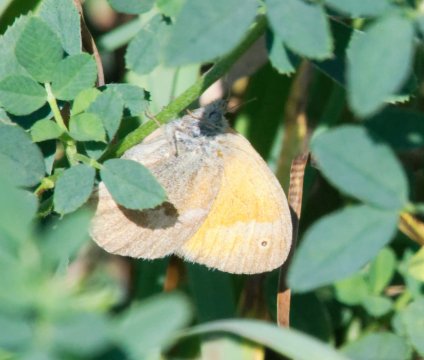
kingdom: Animalia
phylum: Arthropoda
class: Insecta
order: Lepidoptera
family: Nymphalidae
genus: Coenonympha
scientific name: Coenonympha tullia
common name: Large Heath
